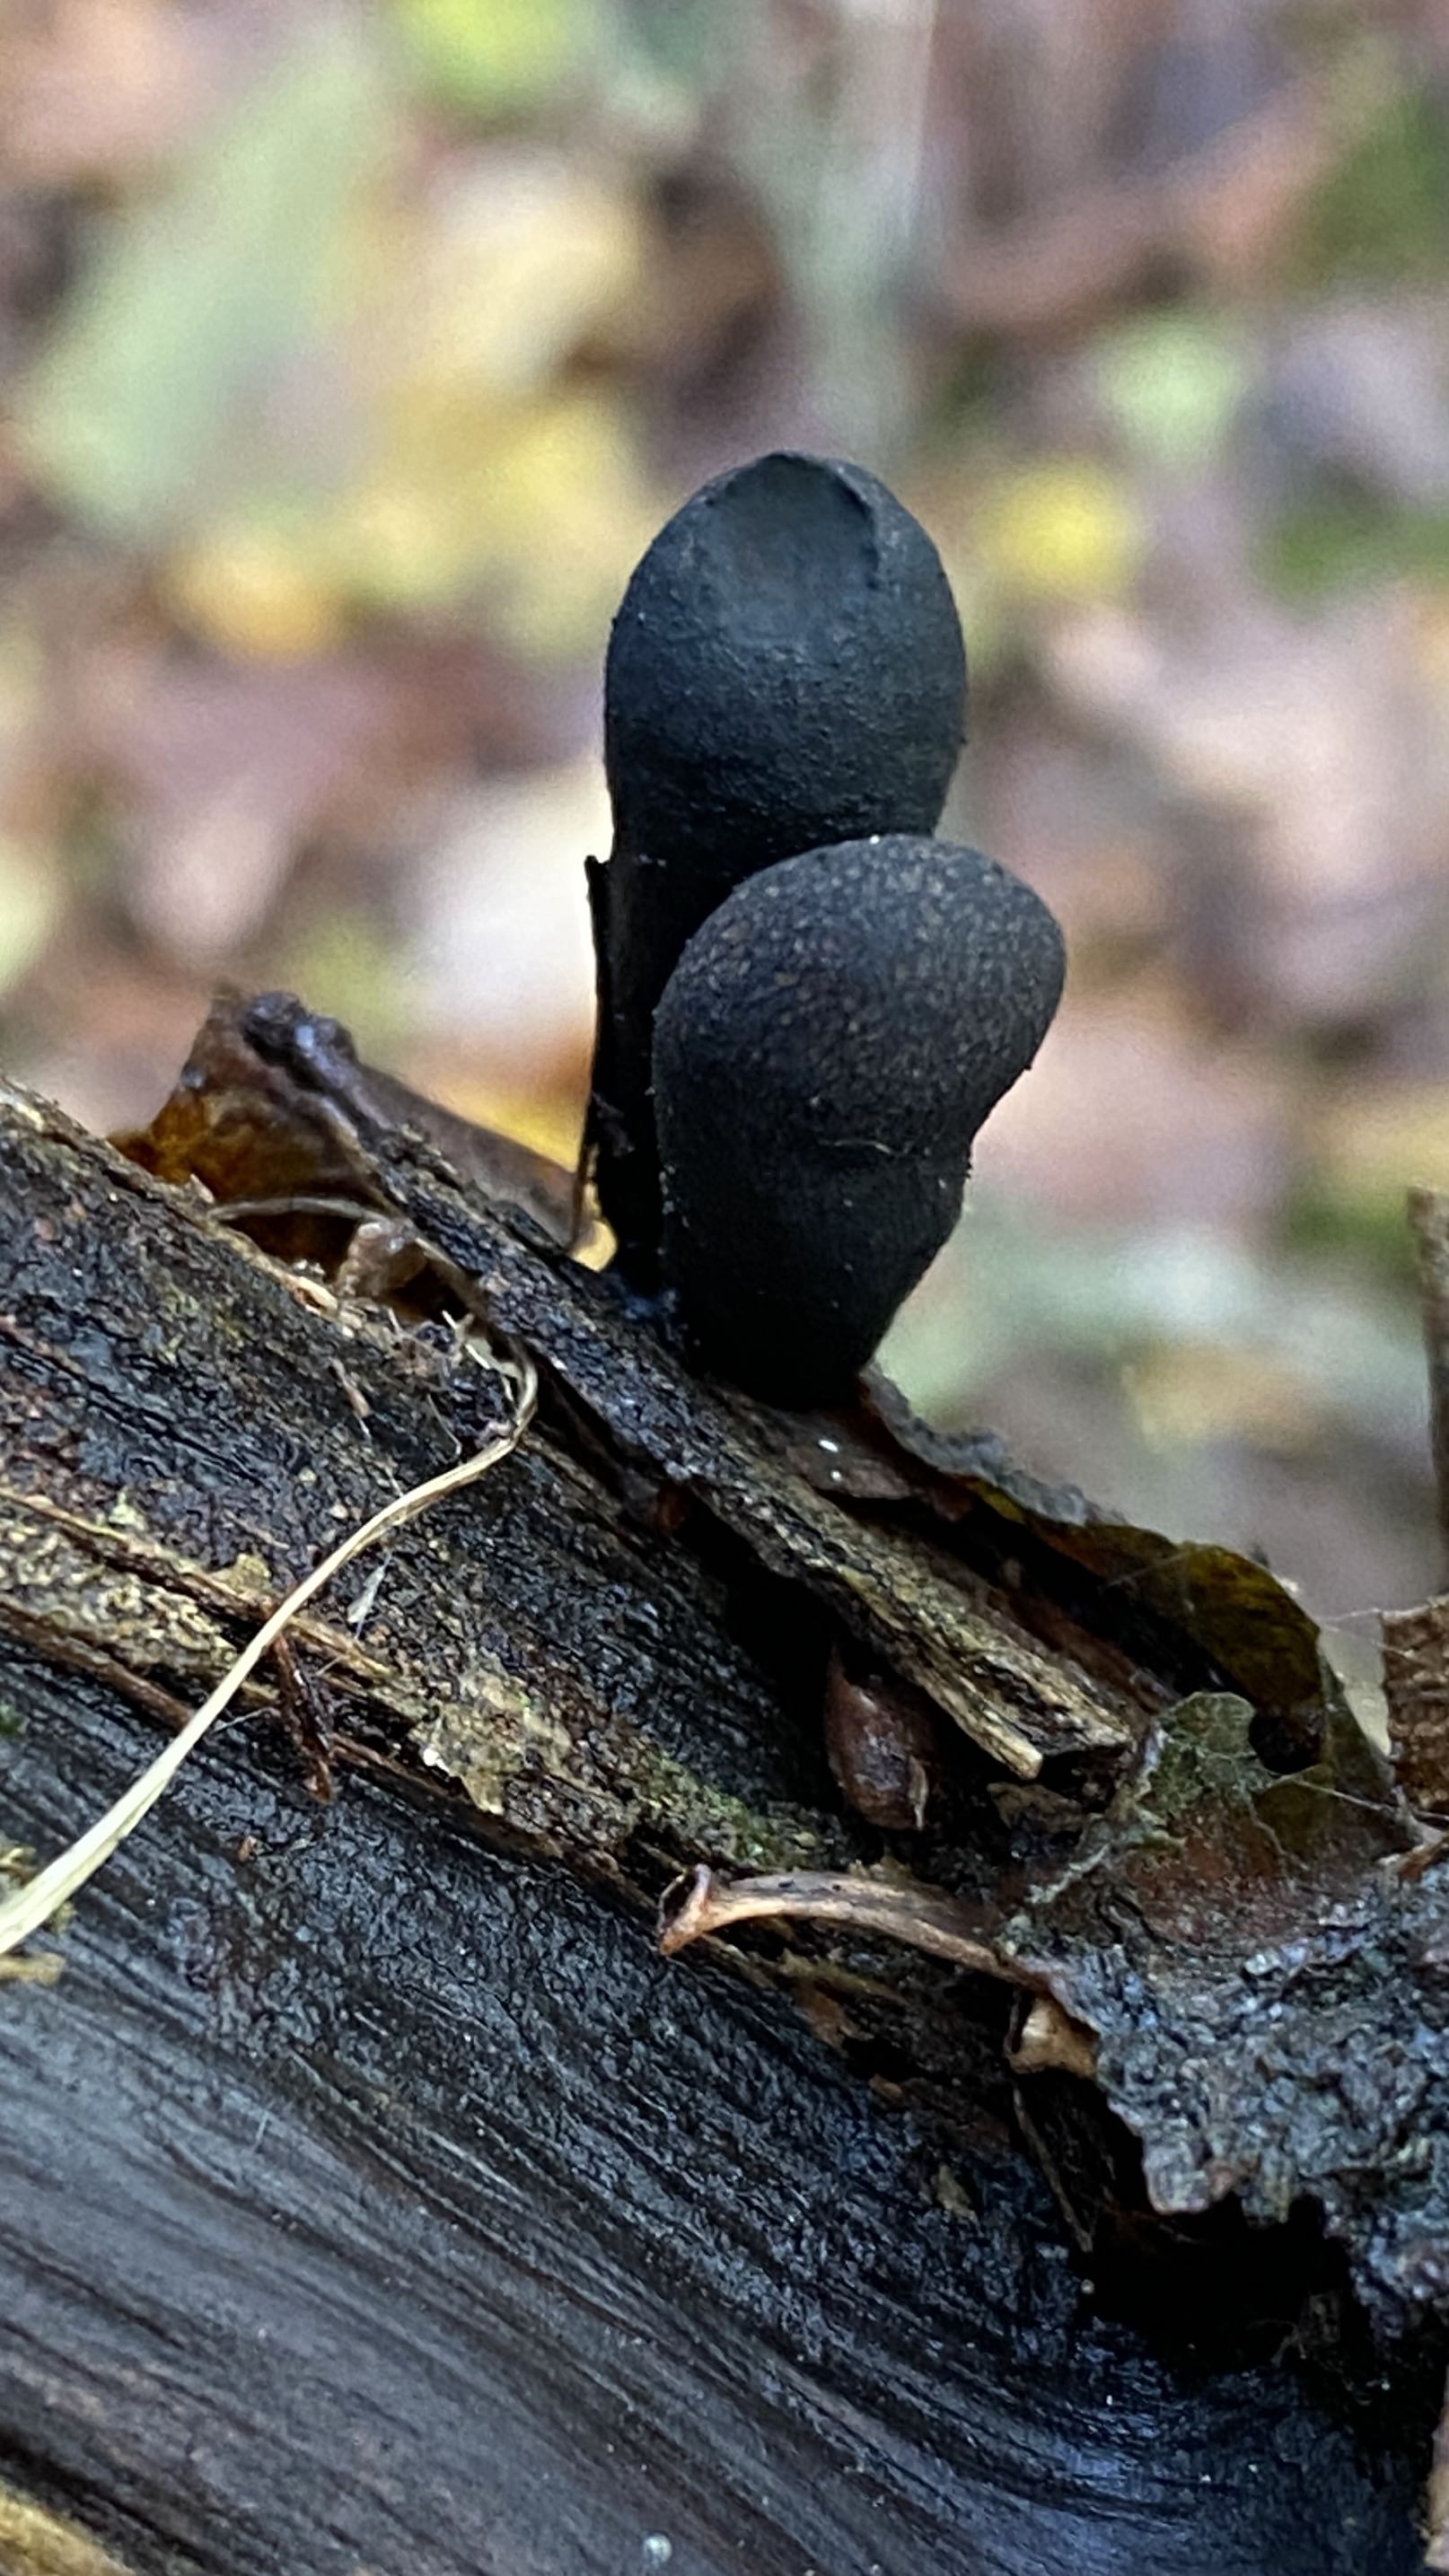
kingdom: Fungi
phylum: Ascomycota
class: Sordariomycetes
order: Xylariales
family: Xylariaceae
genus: Xylaria
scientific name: Xylaria longipes
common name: slank stødsvamp
